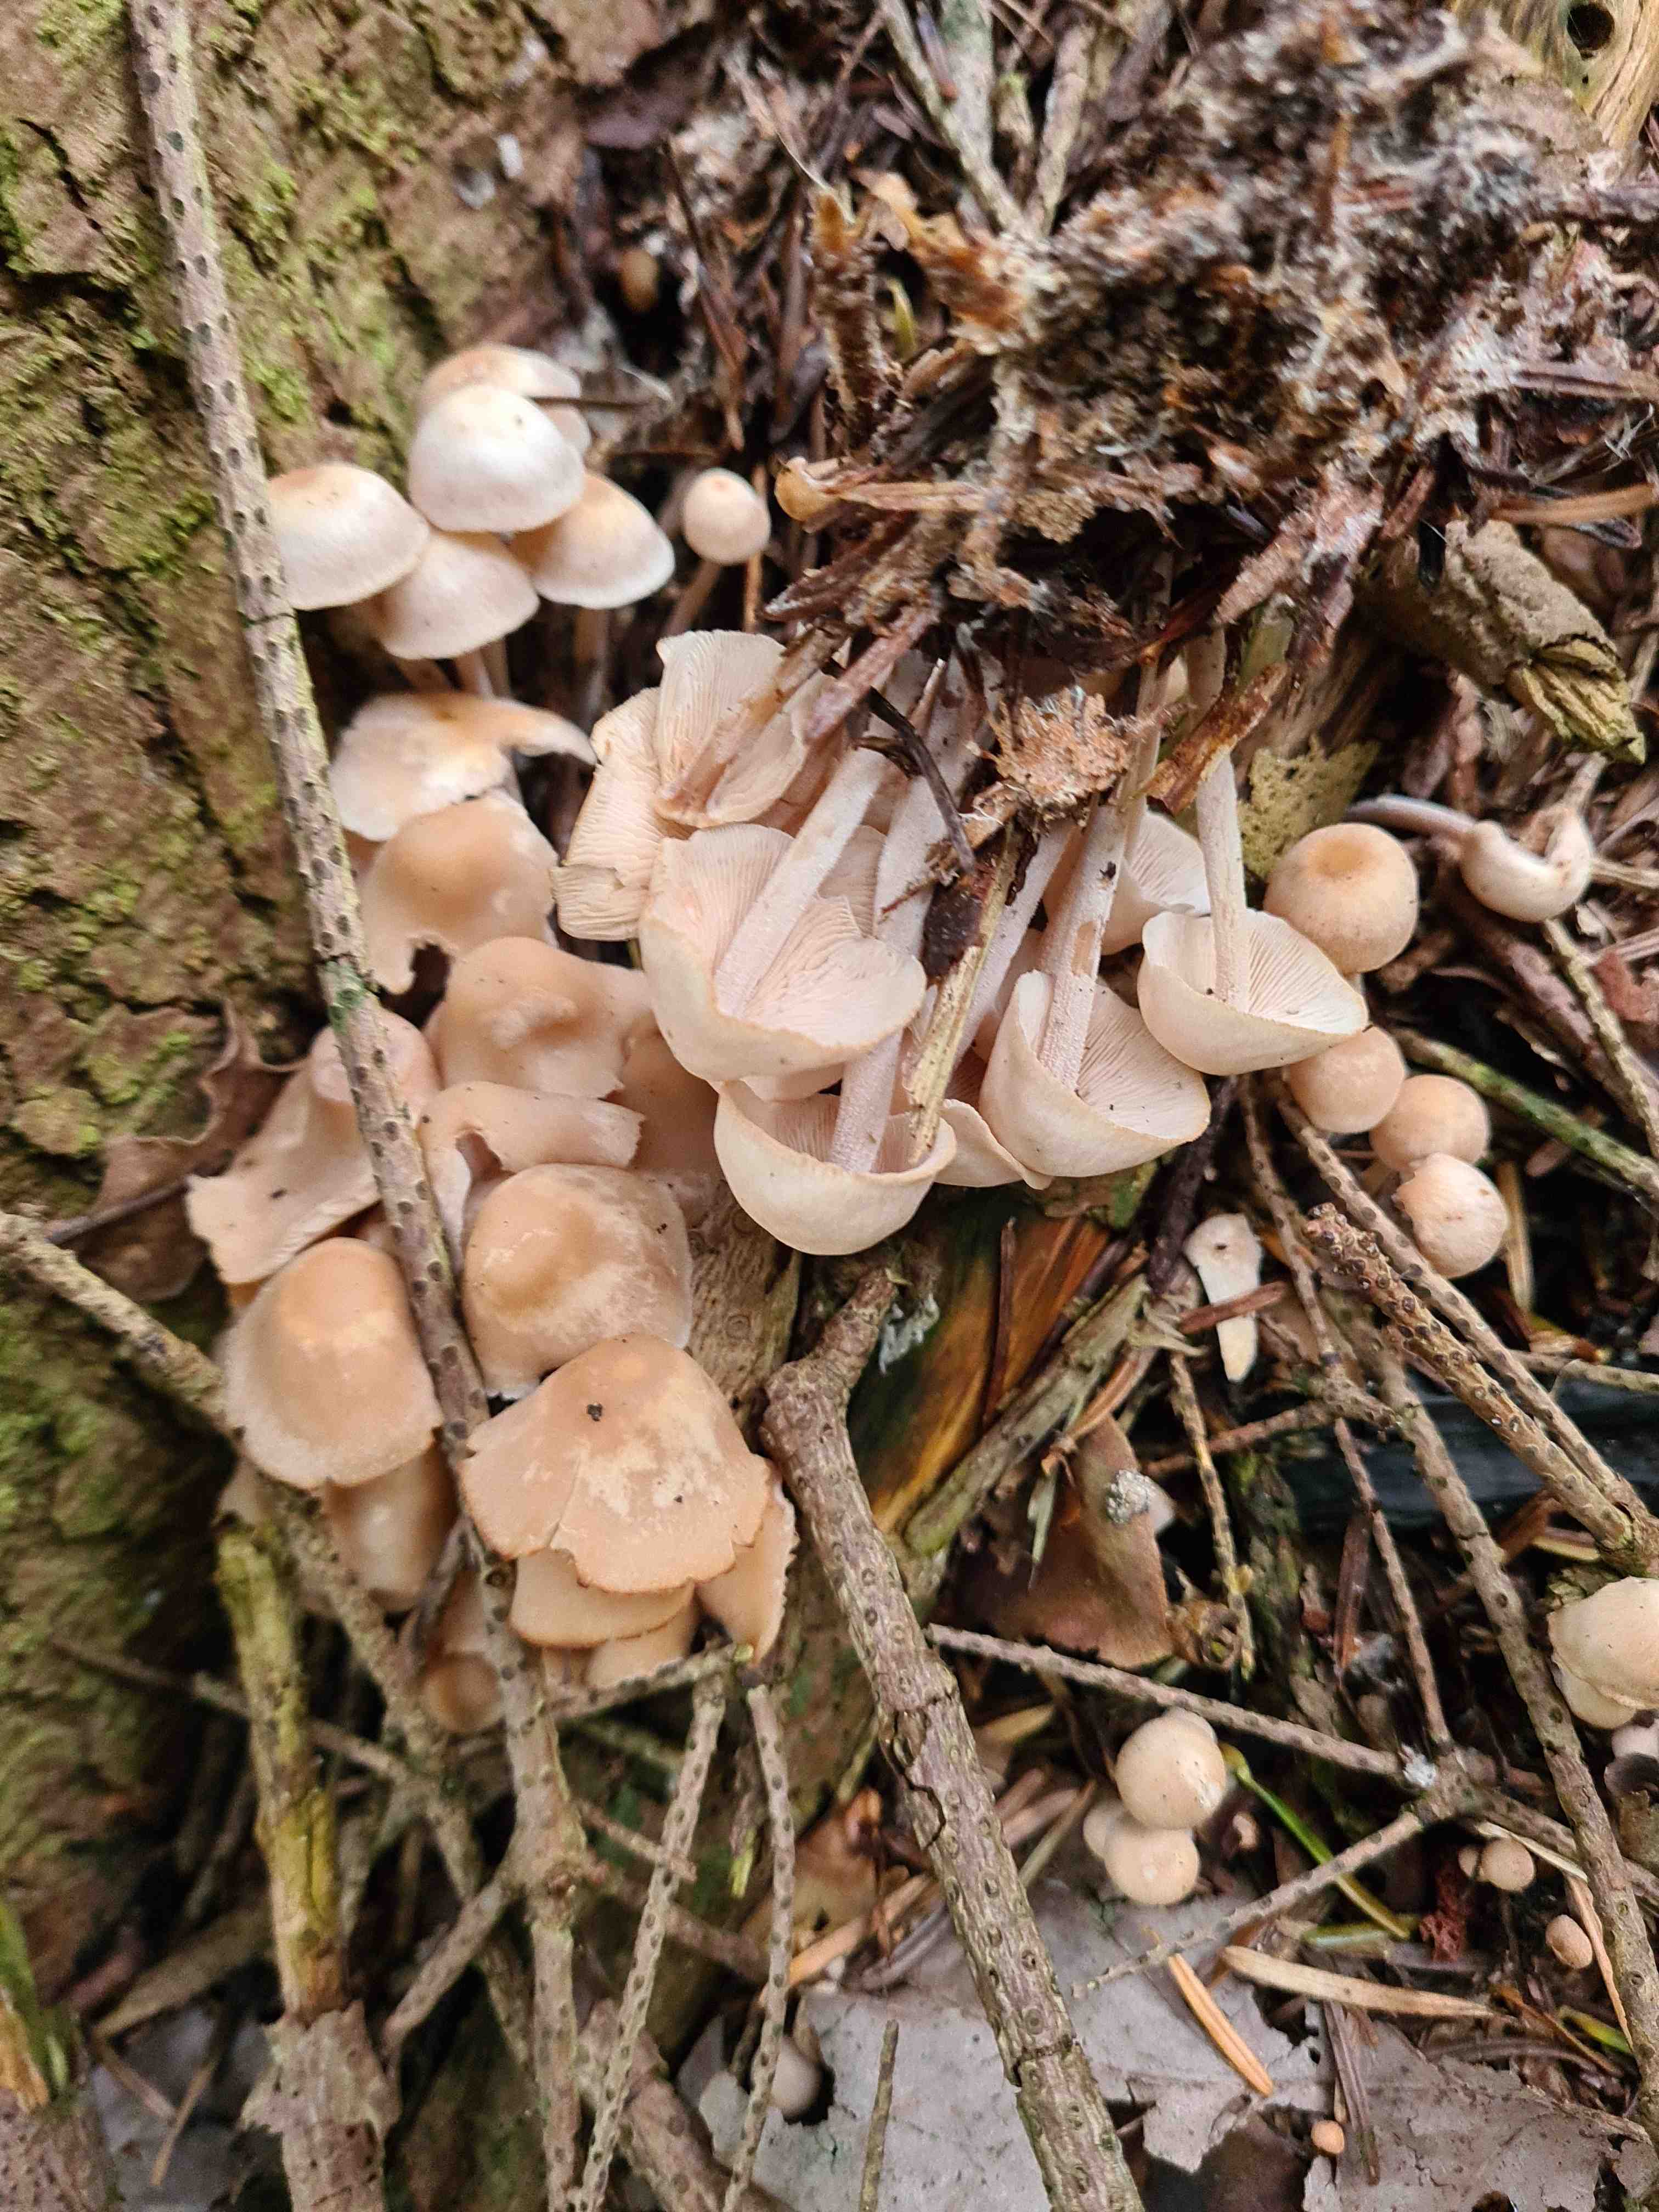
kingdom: Fungi
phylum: Basidiomycota
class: Agaricomycetes
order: Agaricales
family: Omphalotaceae
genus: Collybiopsis
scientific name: Collybiopsis confluens
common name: knippe-fladhat
